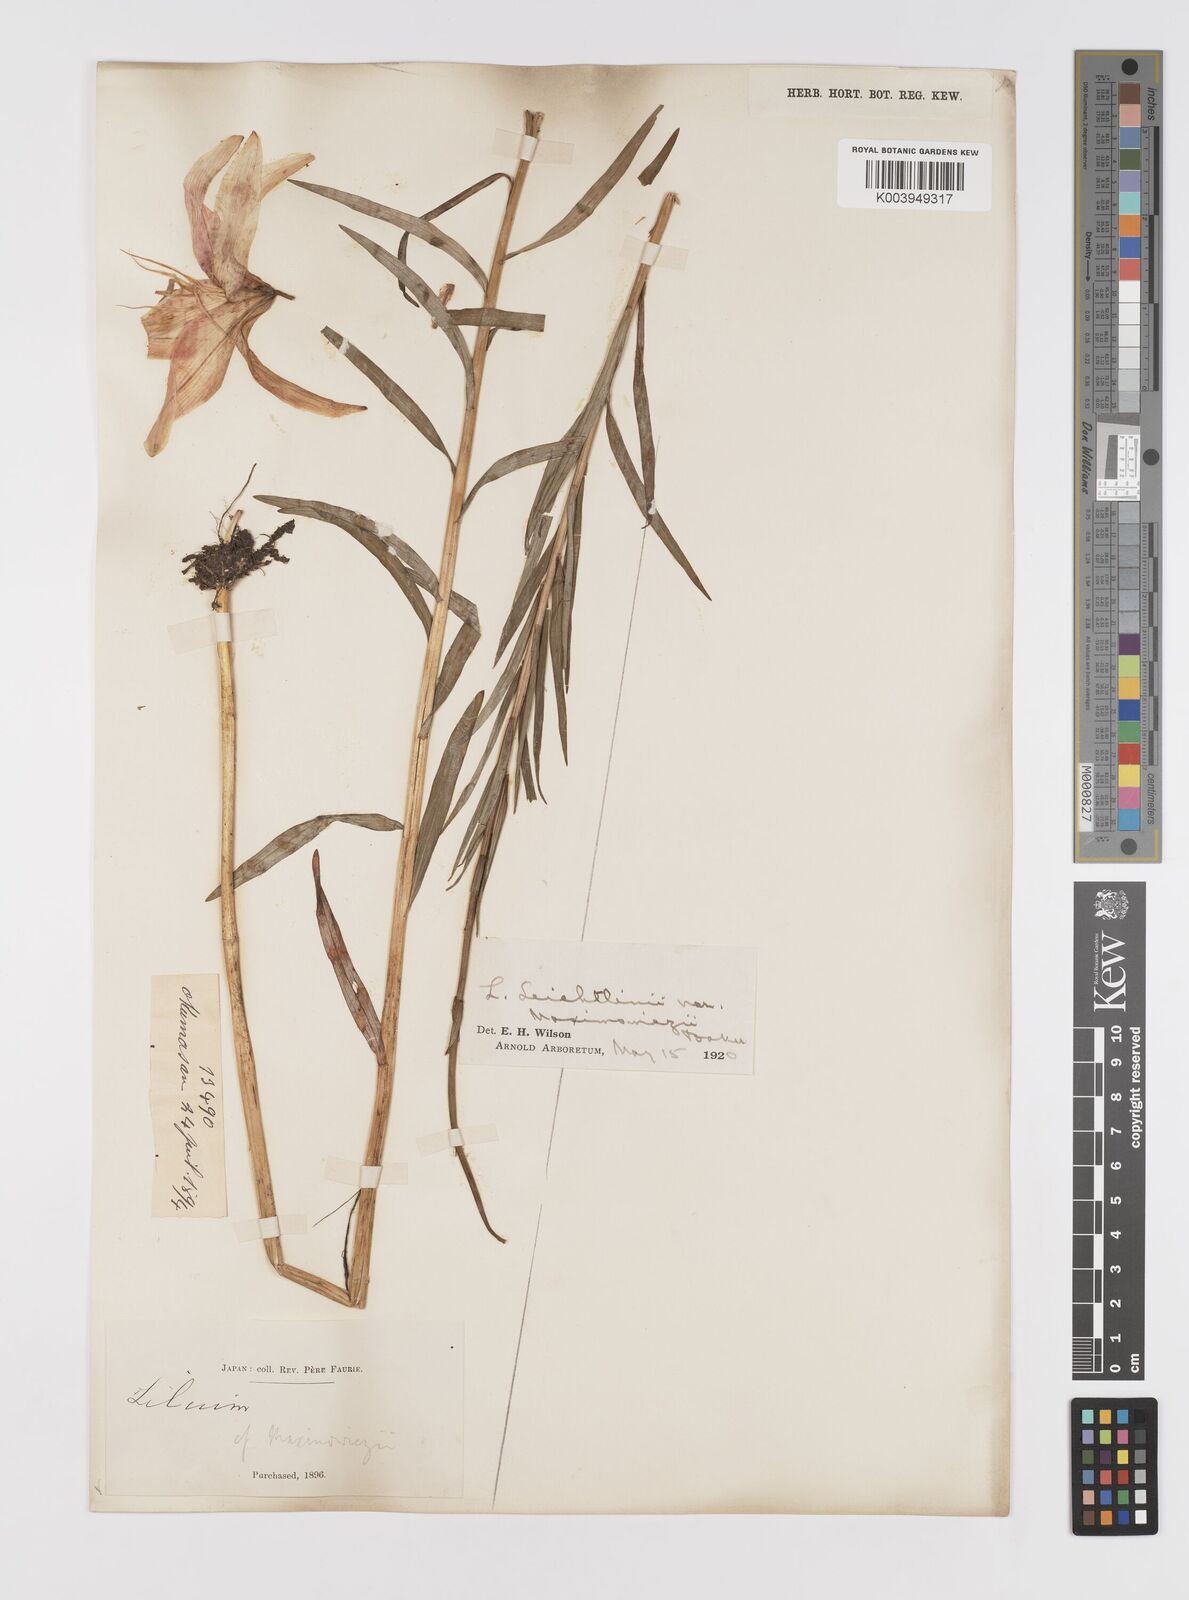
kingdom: Plantae
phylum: Tracheophyta
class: Liliopsida
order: Liliales
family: Liliaceae
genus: Lilium
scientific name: Lilium leichtlinii
